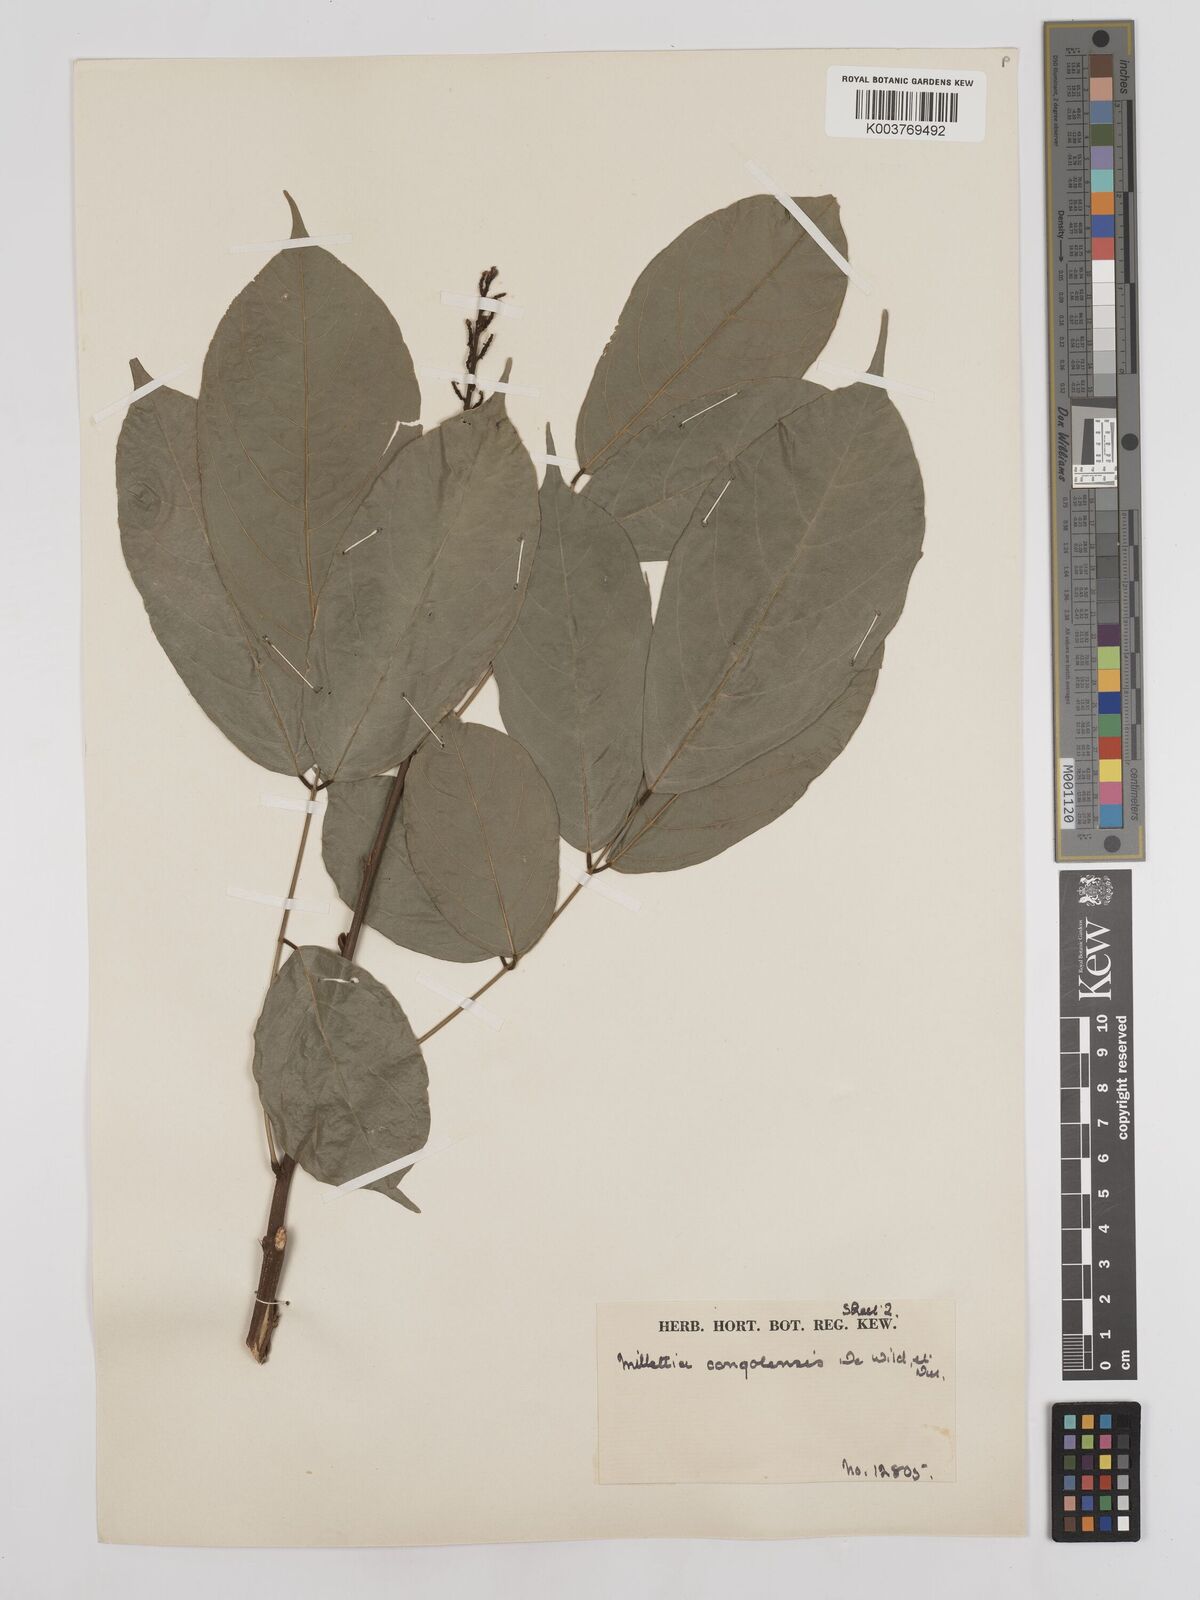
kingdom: Plantae
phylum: Tracheophyta
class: Magnoliopsida
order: Fabales
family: Fabaceae
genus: Millettia
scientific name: Millettia macroura
